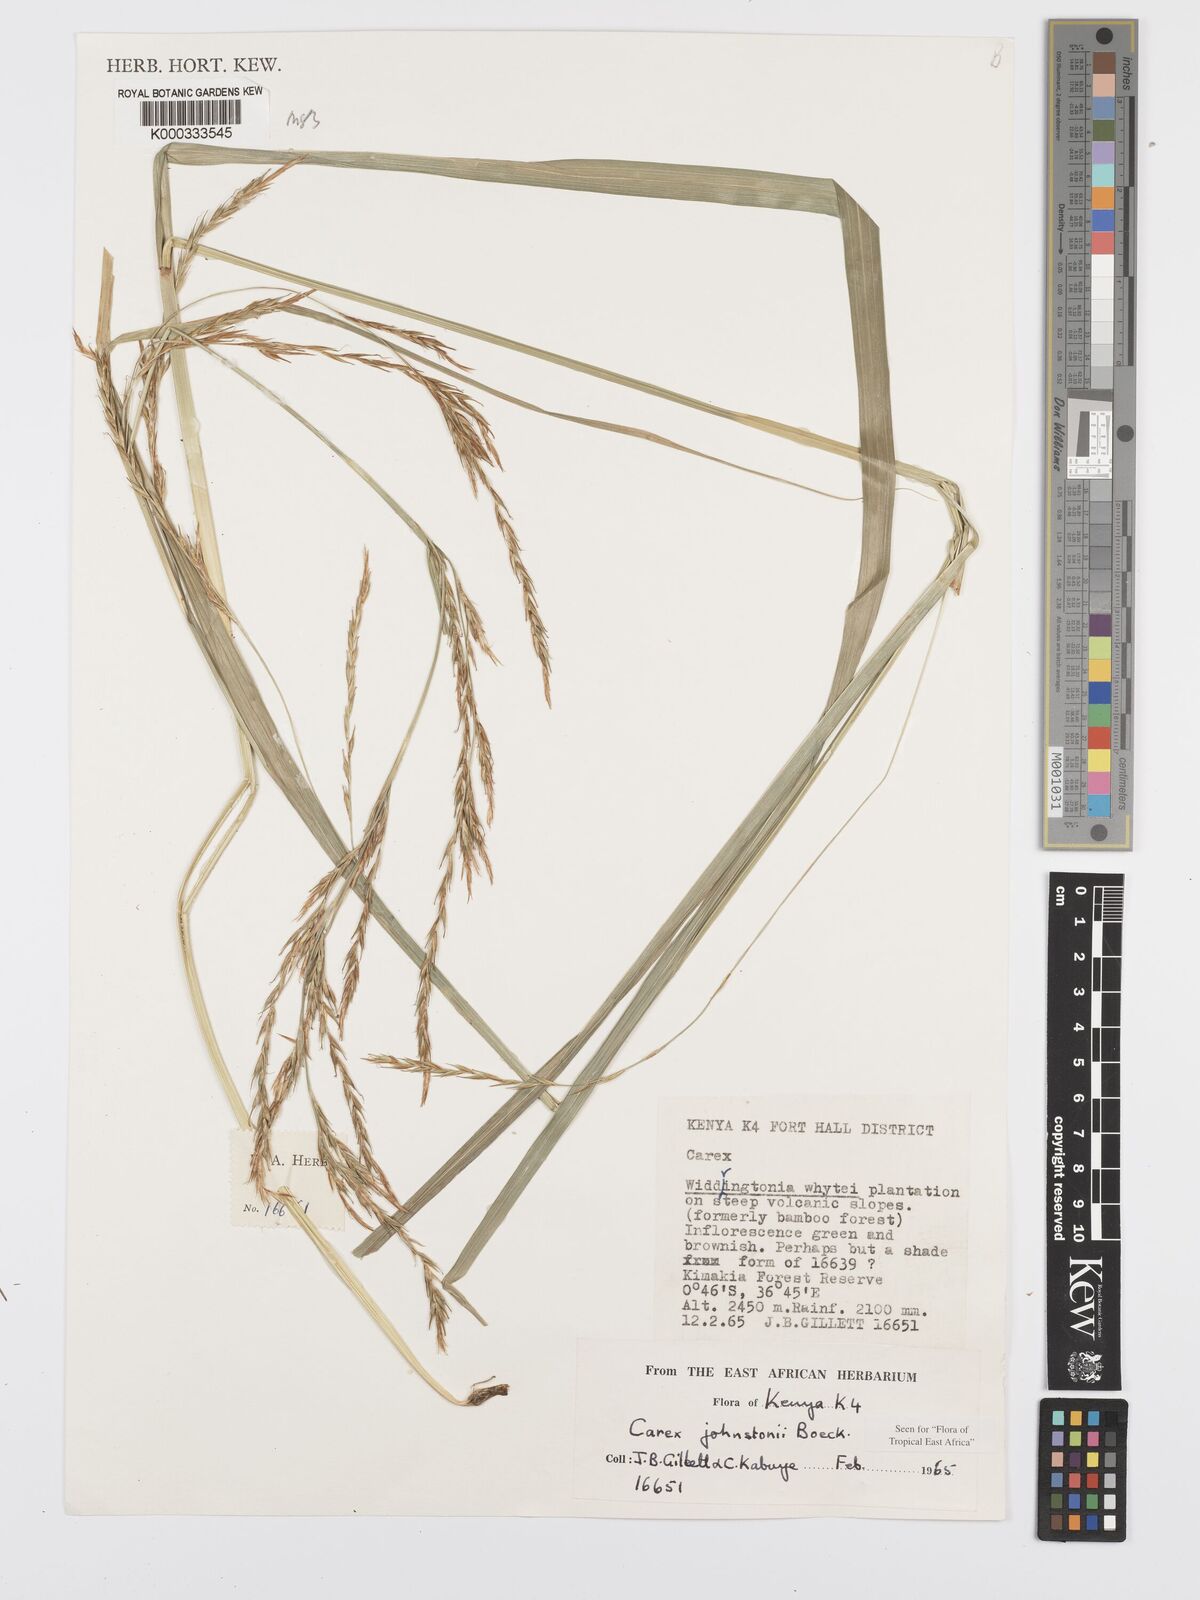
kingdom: Plantae
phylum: Tracheophyta
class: Liliopsida
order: Poales
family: Cyperaceae
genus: Carex
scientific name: Carex johnstonii
